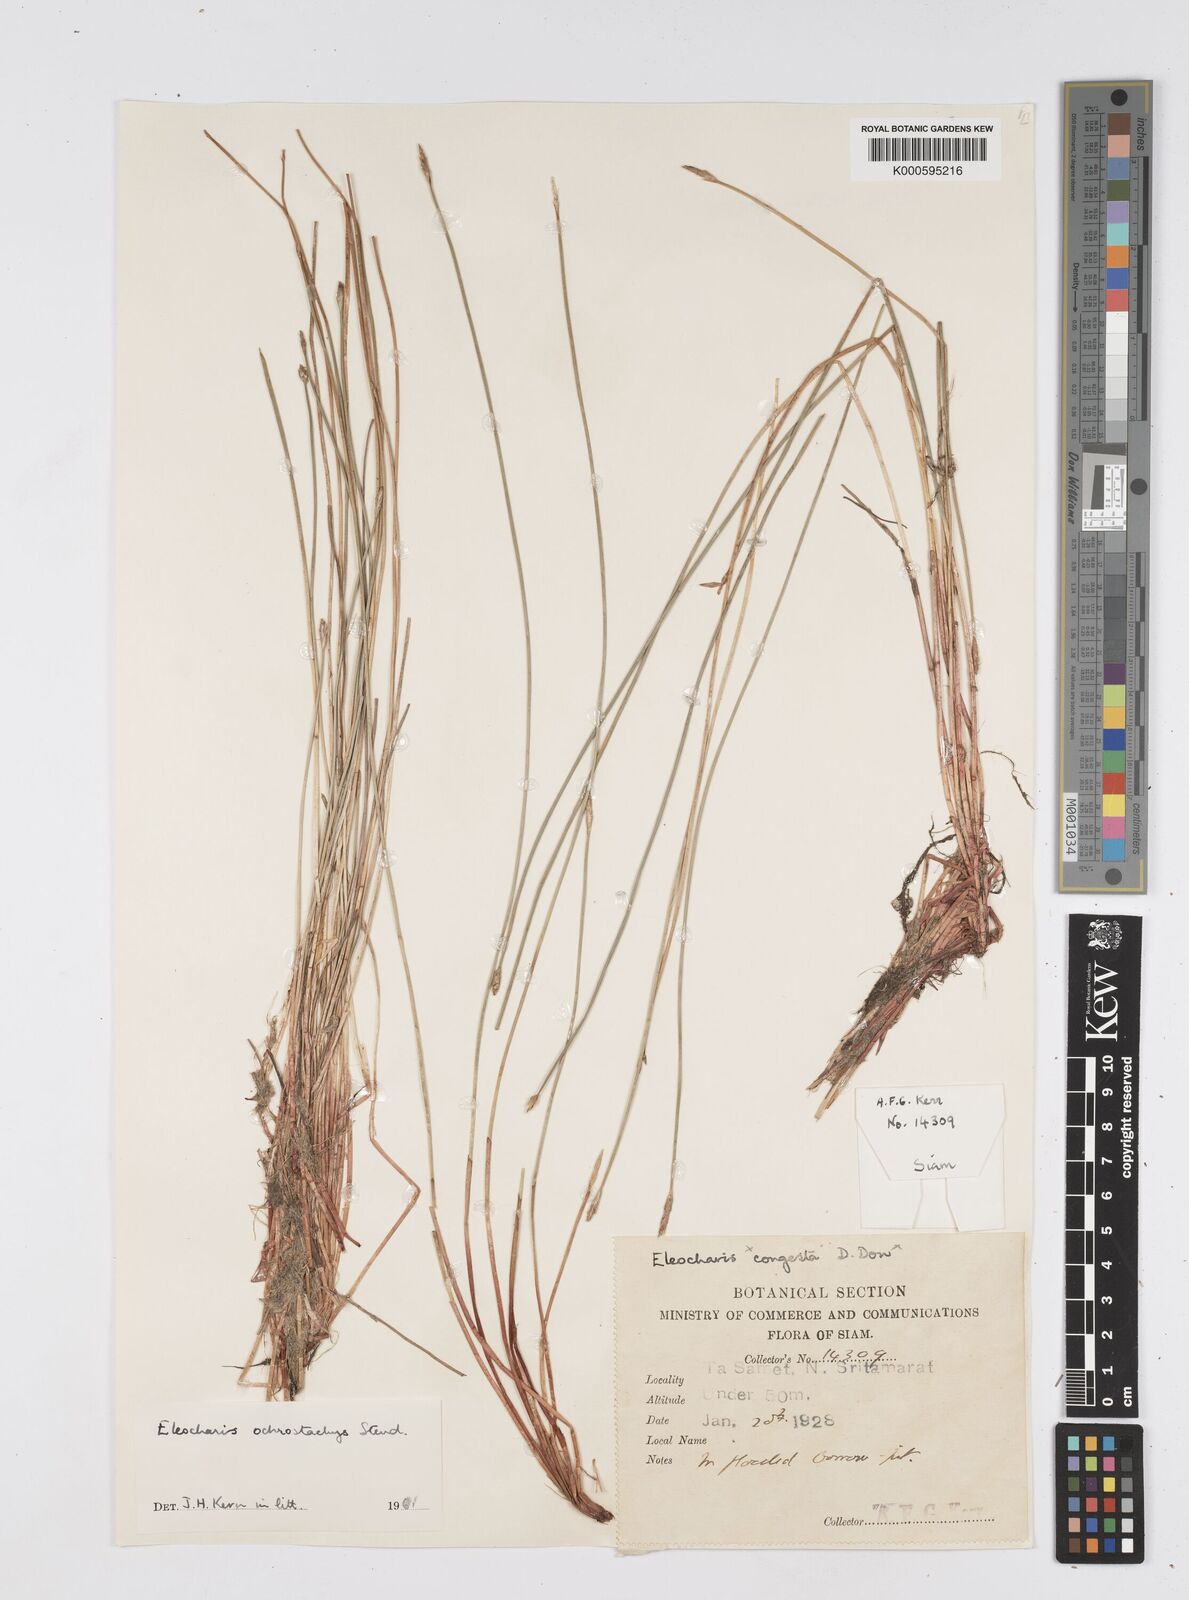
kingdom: Plantae
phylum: Tracheophyta
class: Liliopsida
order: Poales
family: Cyperaceae
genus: Eleocharis
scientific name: Eleocharis ochrostachys
